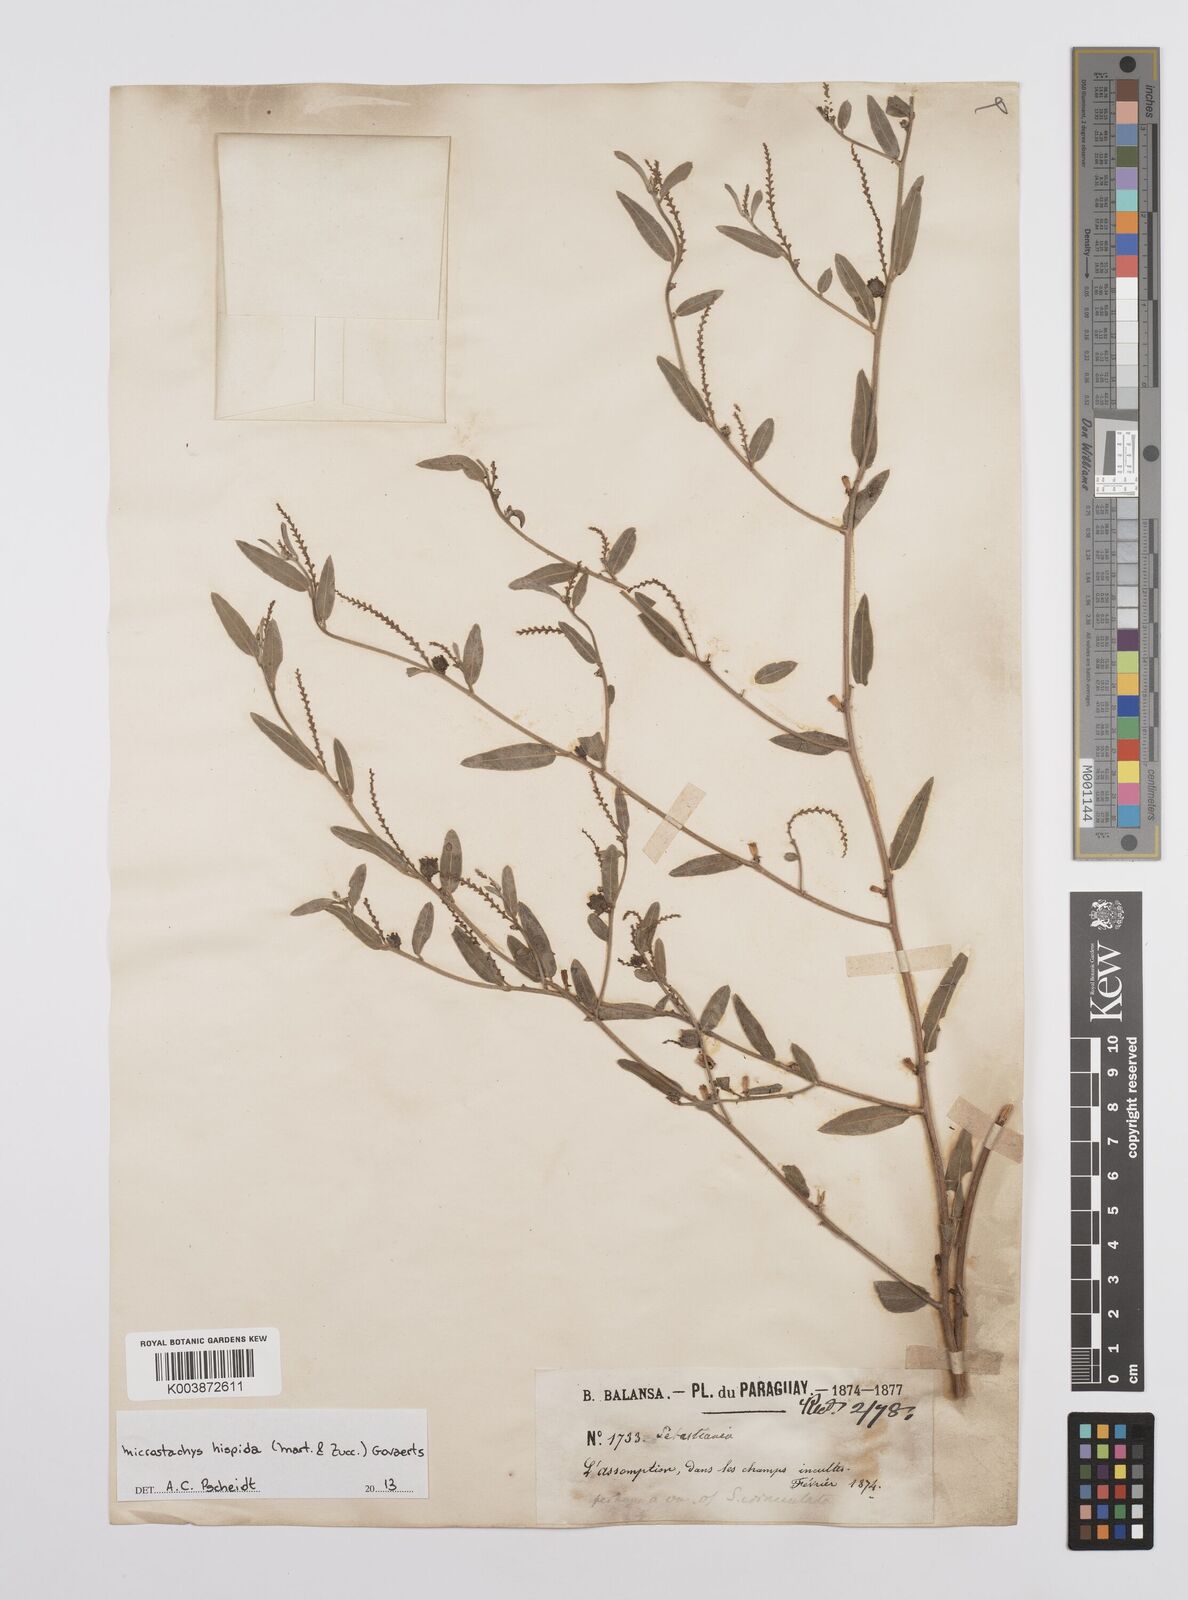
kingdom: Plantae
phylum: Tracheophyta
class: Magnoliopsida
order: Malpighiales
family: Euphorbiaceae
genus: Microstachys
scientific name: Microstachys hispida
